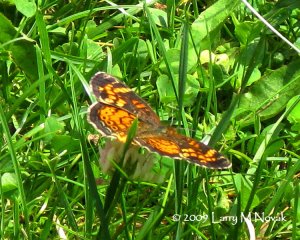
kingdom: Animalia
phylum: Arthropoda
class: Insecta
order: Lepidoptera
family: Nymphalidae
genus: Phyciodes
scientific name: Phyciodes tharos
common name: Pearl Crescent
